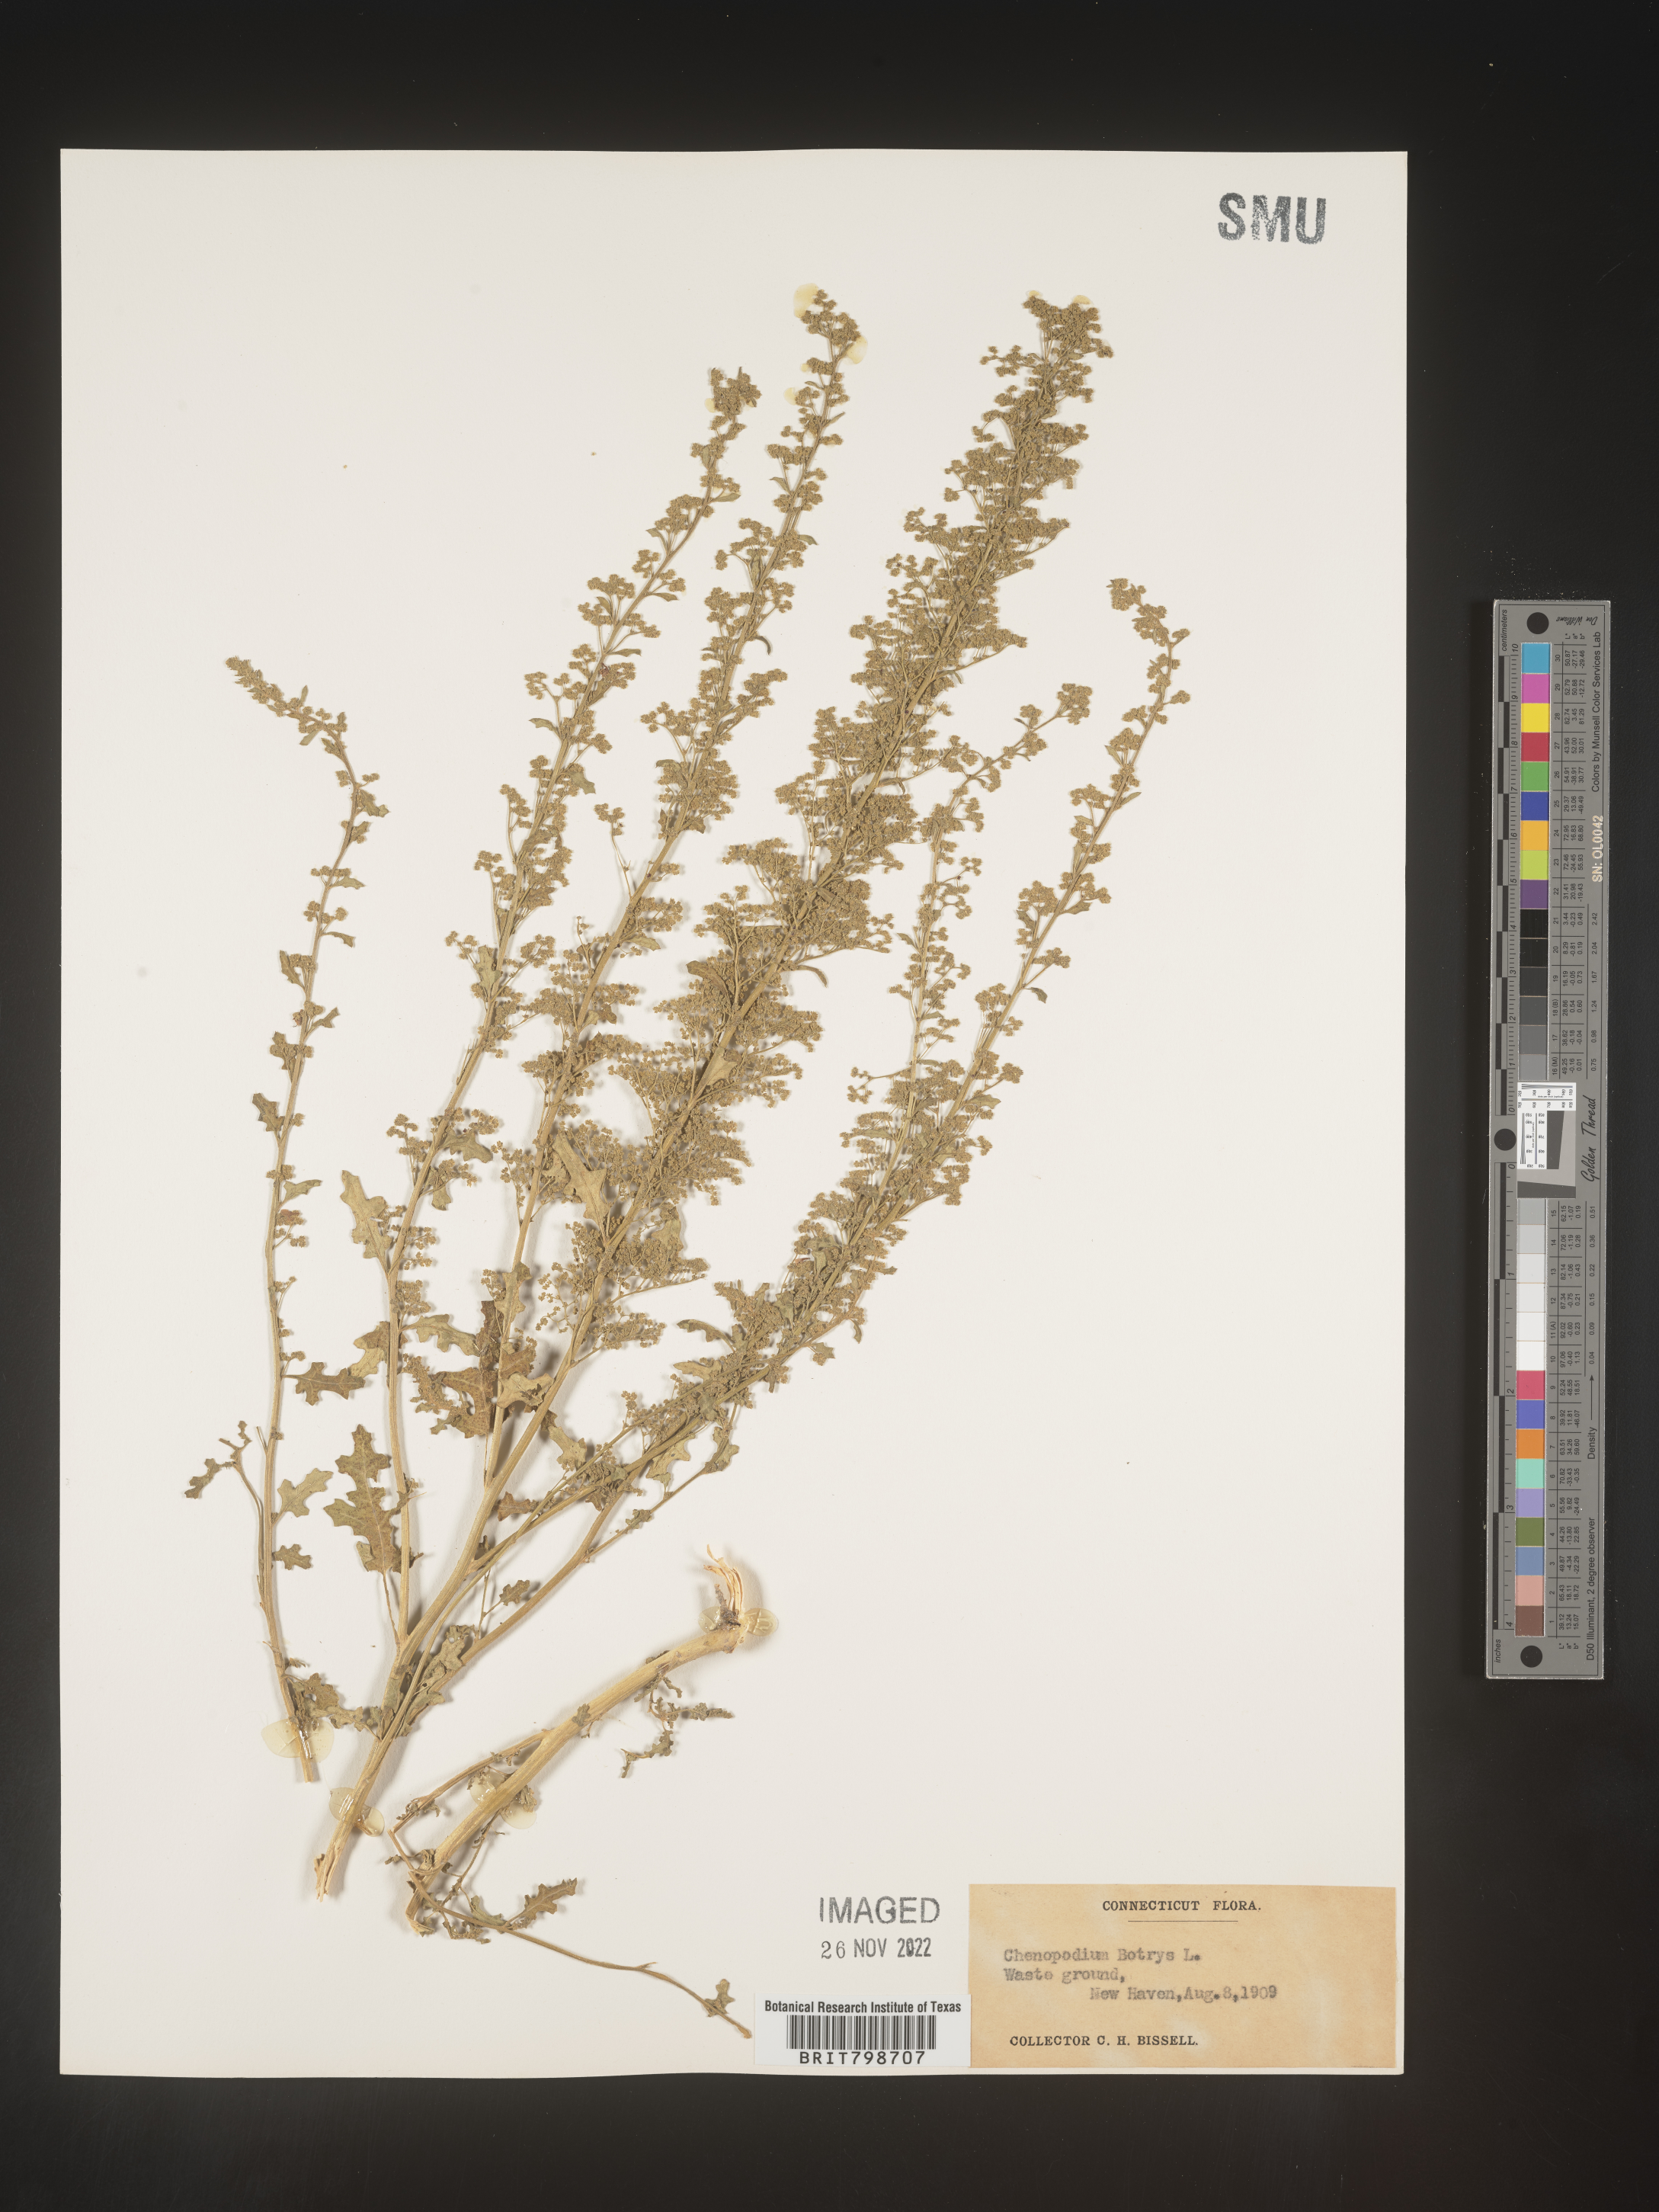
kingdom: Plantae
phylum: Tracheophyta
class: Magnoliopsida
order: Caryophyllales
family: Amaranthaceae
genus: Dysphania
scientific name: Dysphania botrys
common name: Feather-geranium
